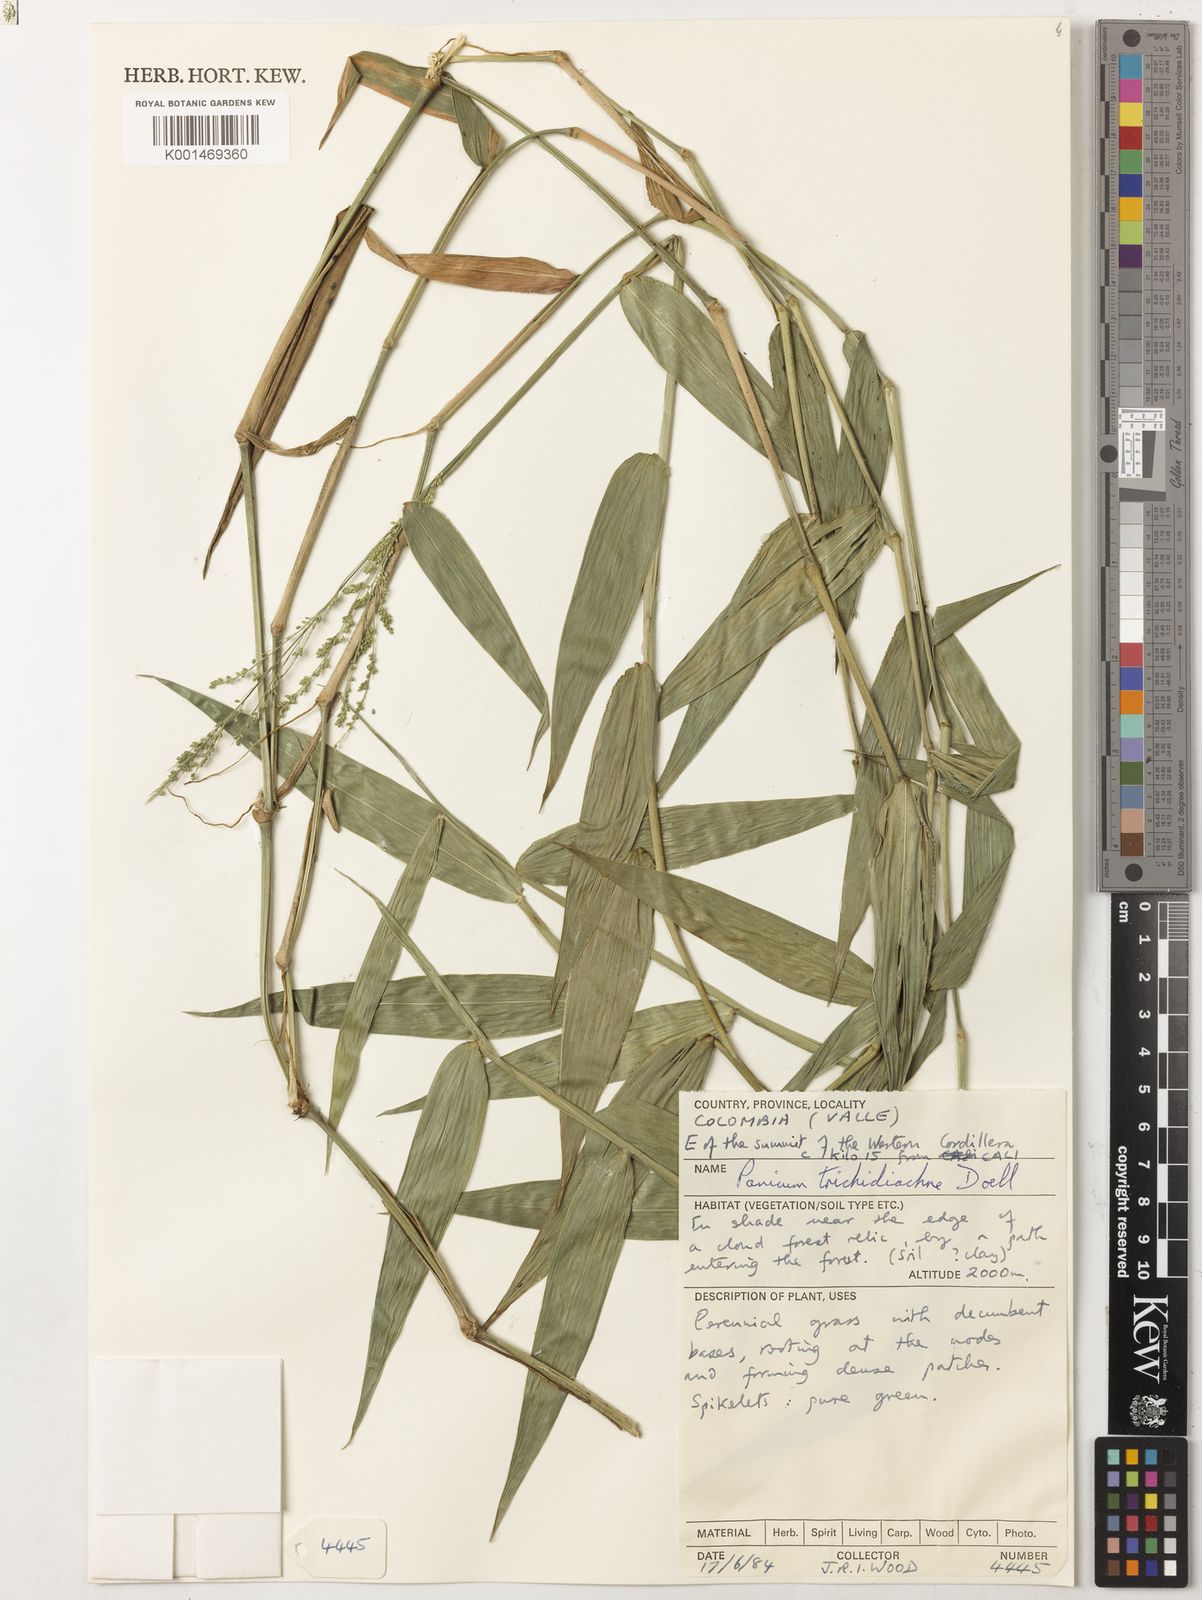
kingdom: Plantae
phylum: Tracheophyta
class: Liliopsida
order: Poales
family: Poaceae
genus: Panicum
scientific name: Panicum
